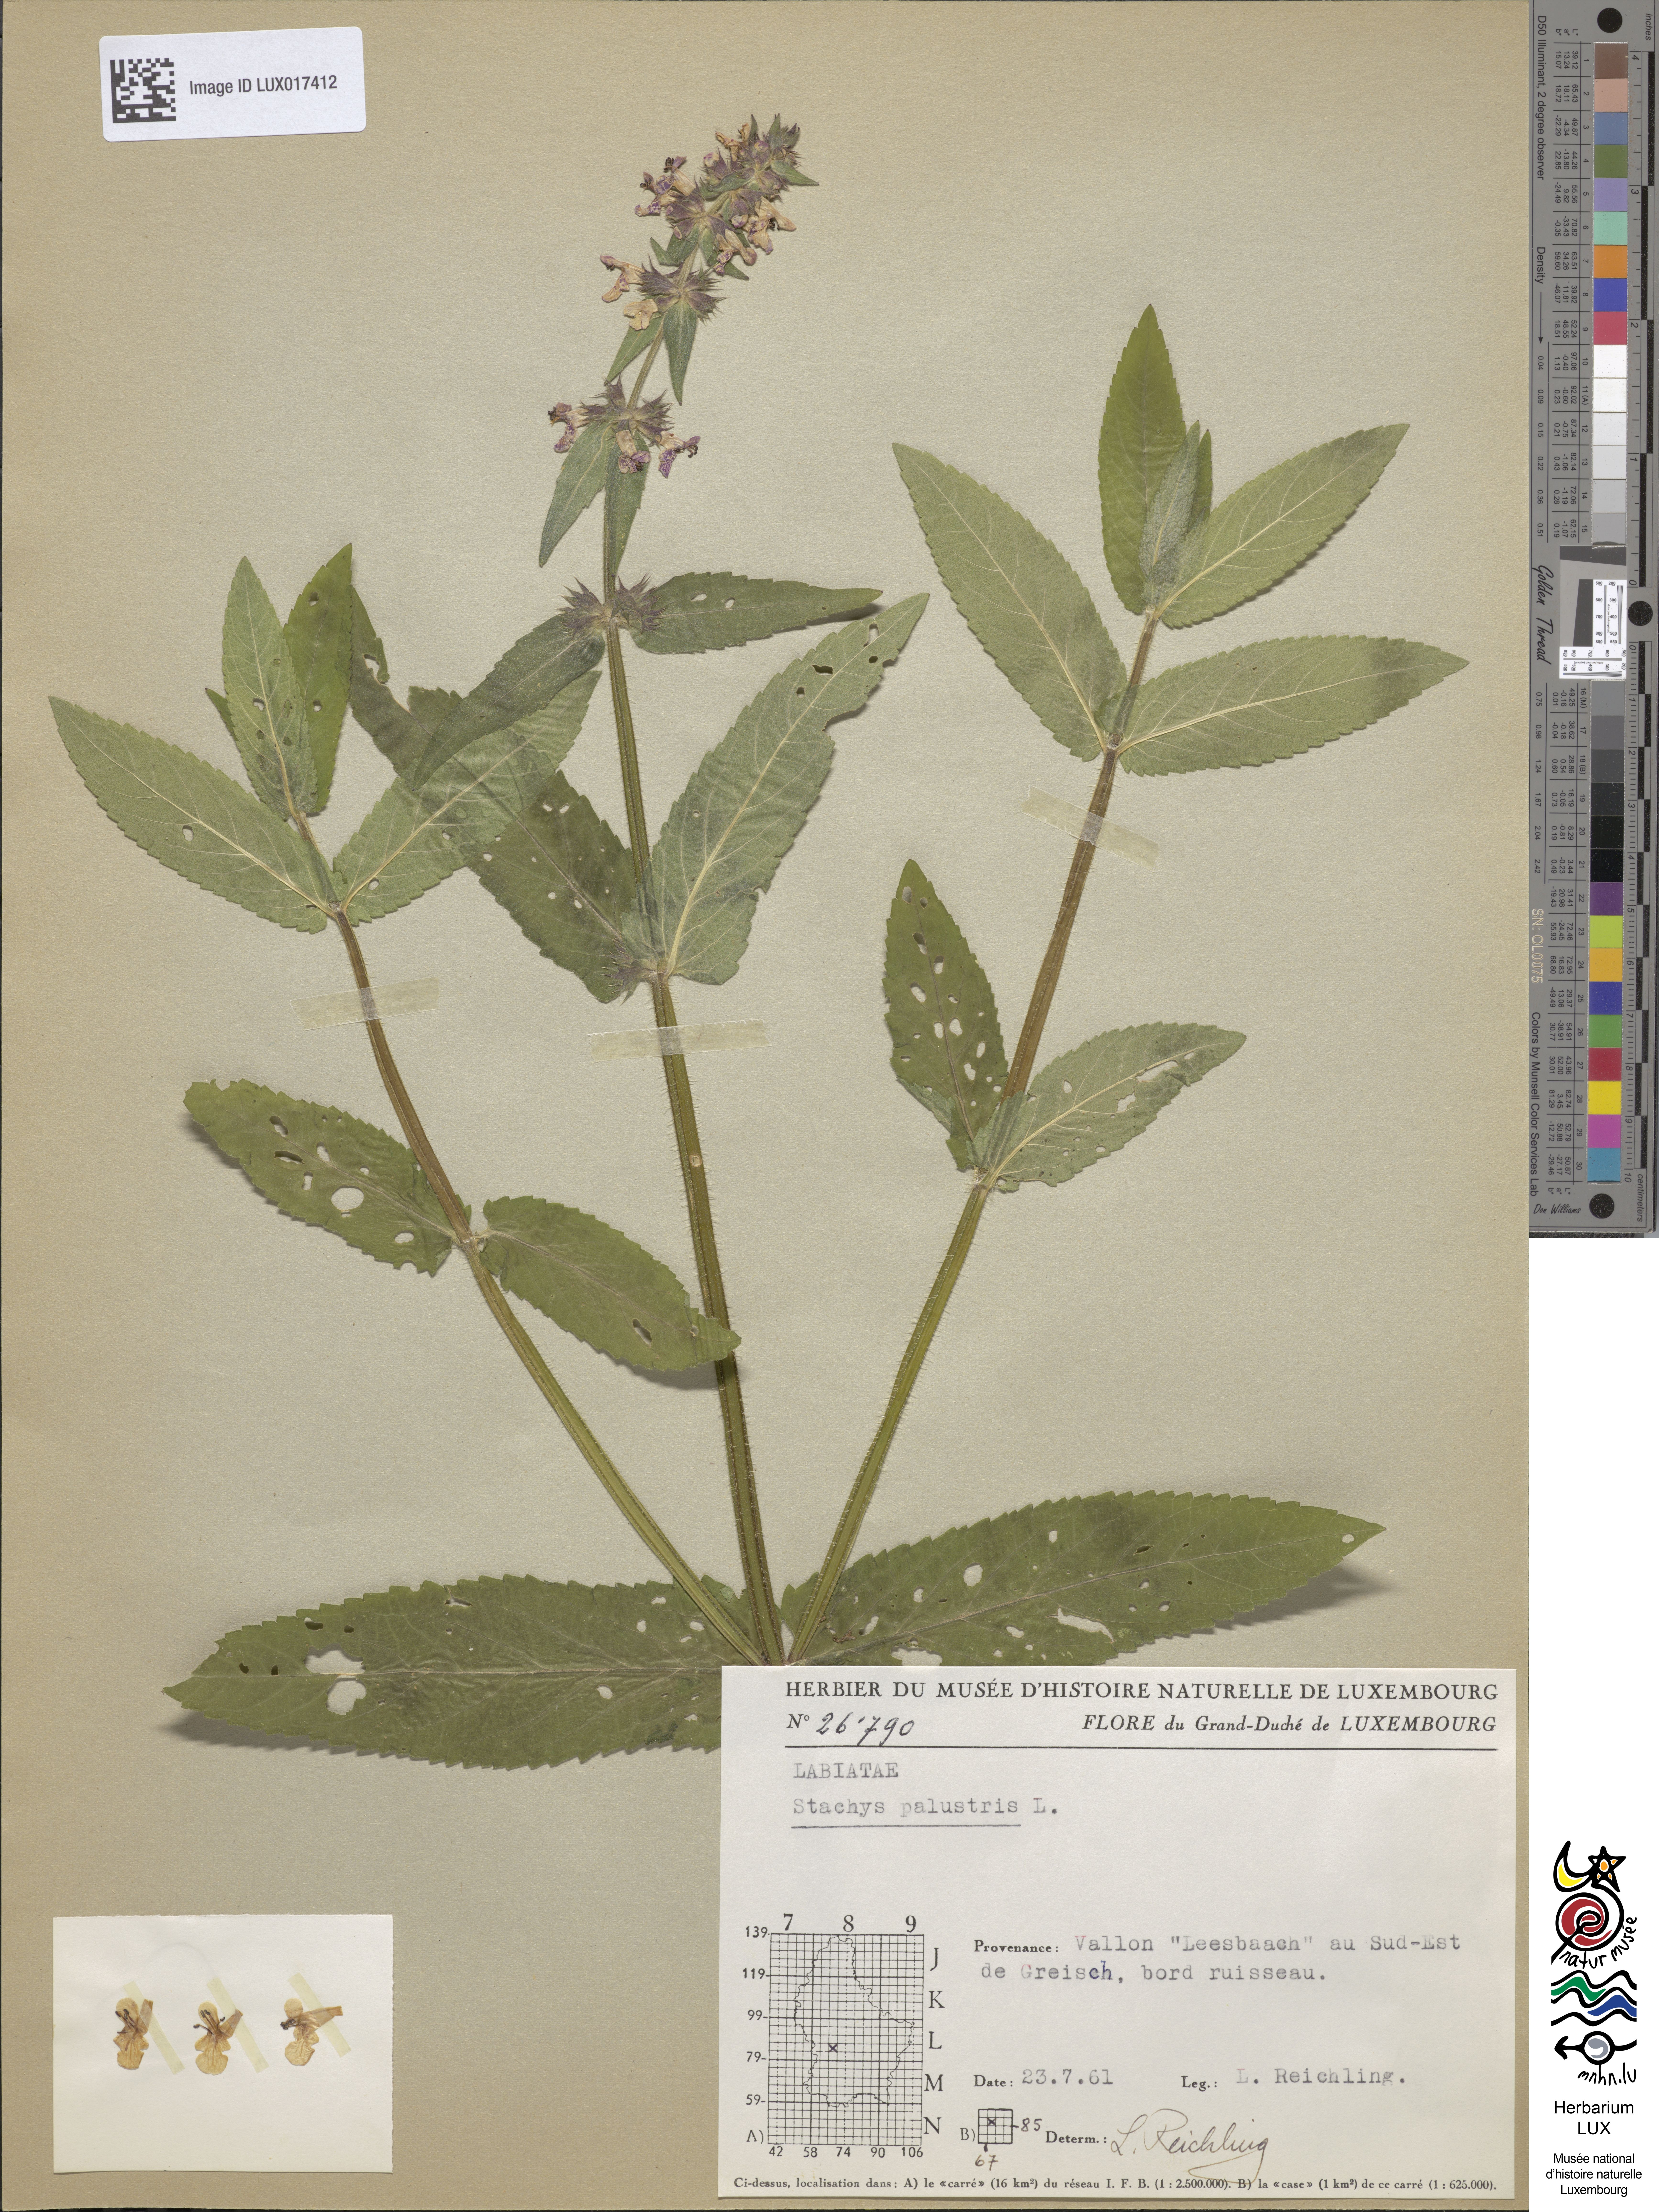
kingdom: Plantae
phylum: Tracheophyta
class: Magnoliopsida
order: Lamiales
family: Lamiaceae
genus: Stachys
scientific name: Stachys palustris
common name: Marsh woundwort
